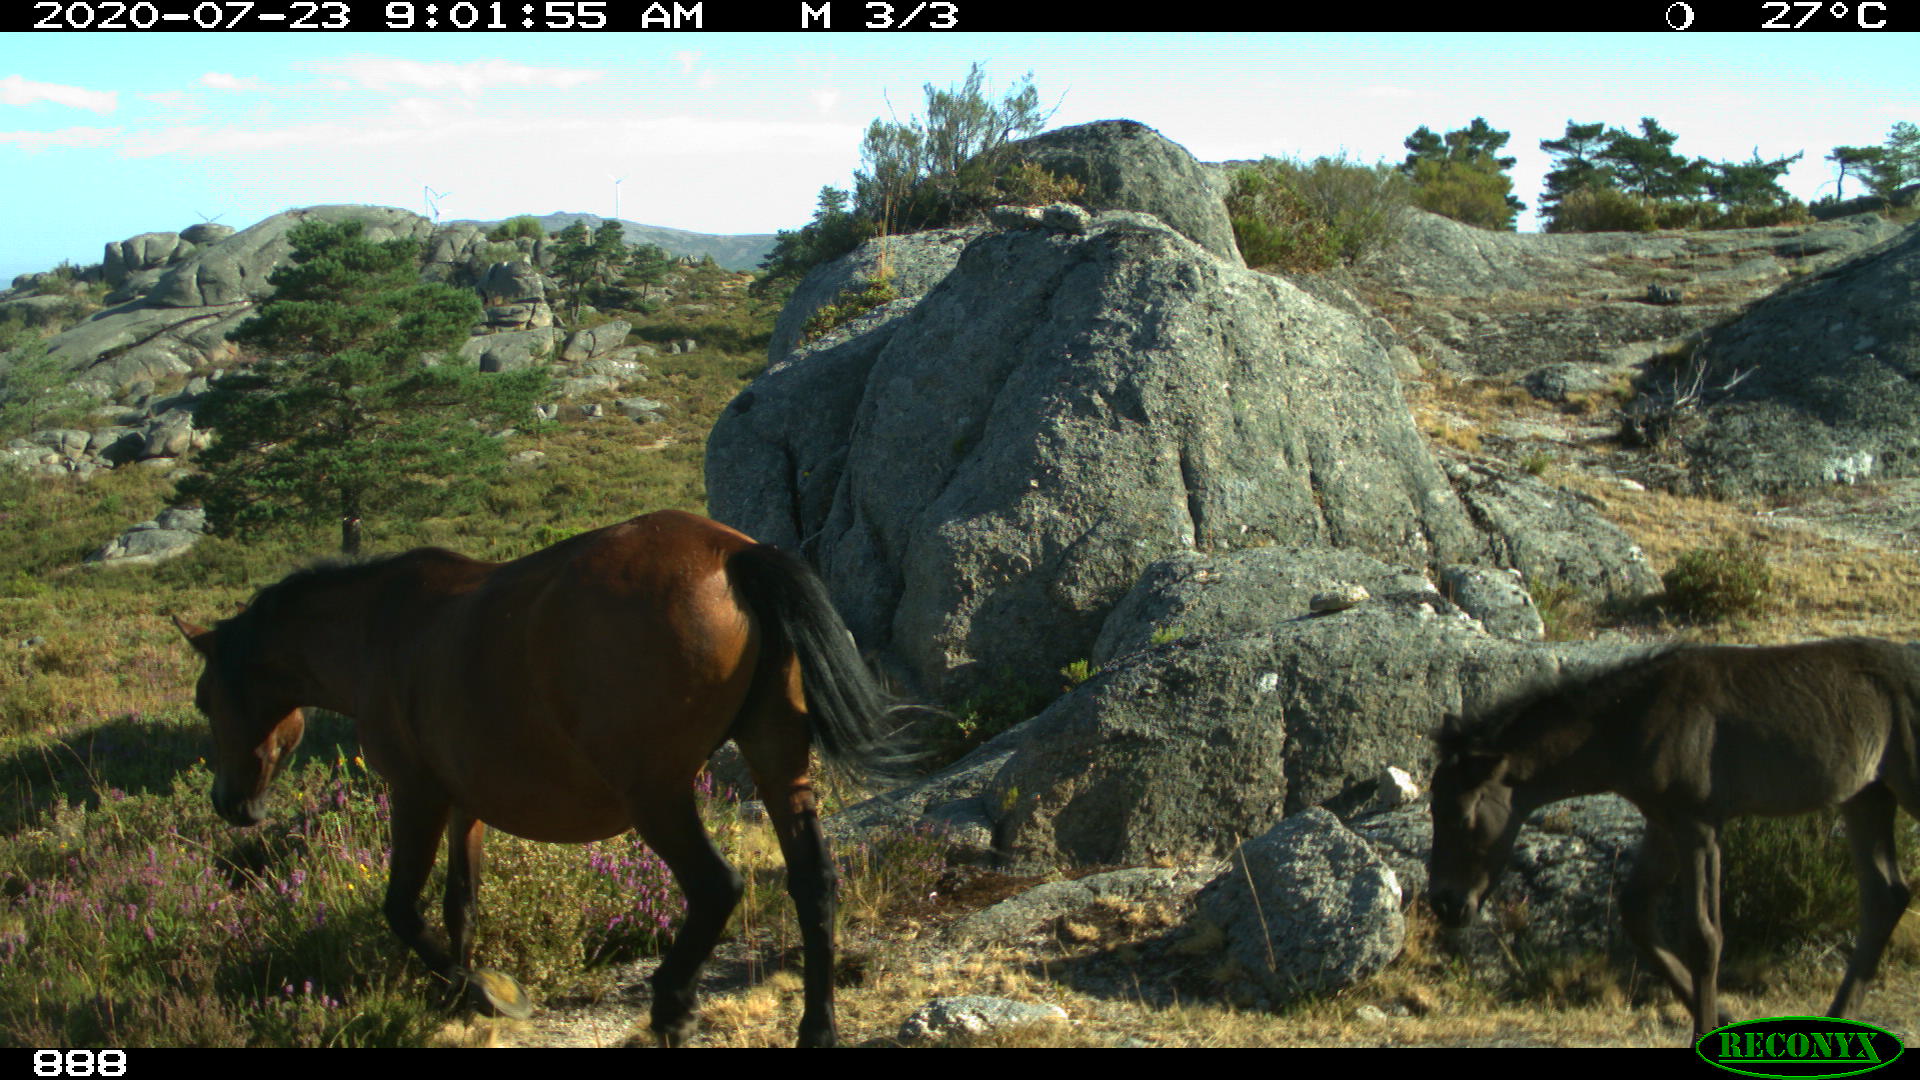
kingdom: Animalia
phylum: Chordata
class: Mammalia
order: Perissodactyla
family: Equidae
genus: Equus
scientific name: Equus caballus
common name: Horse
